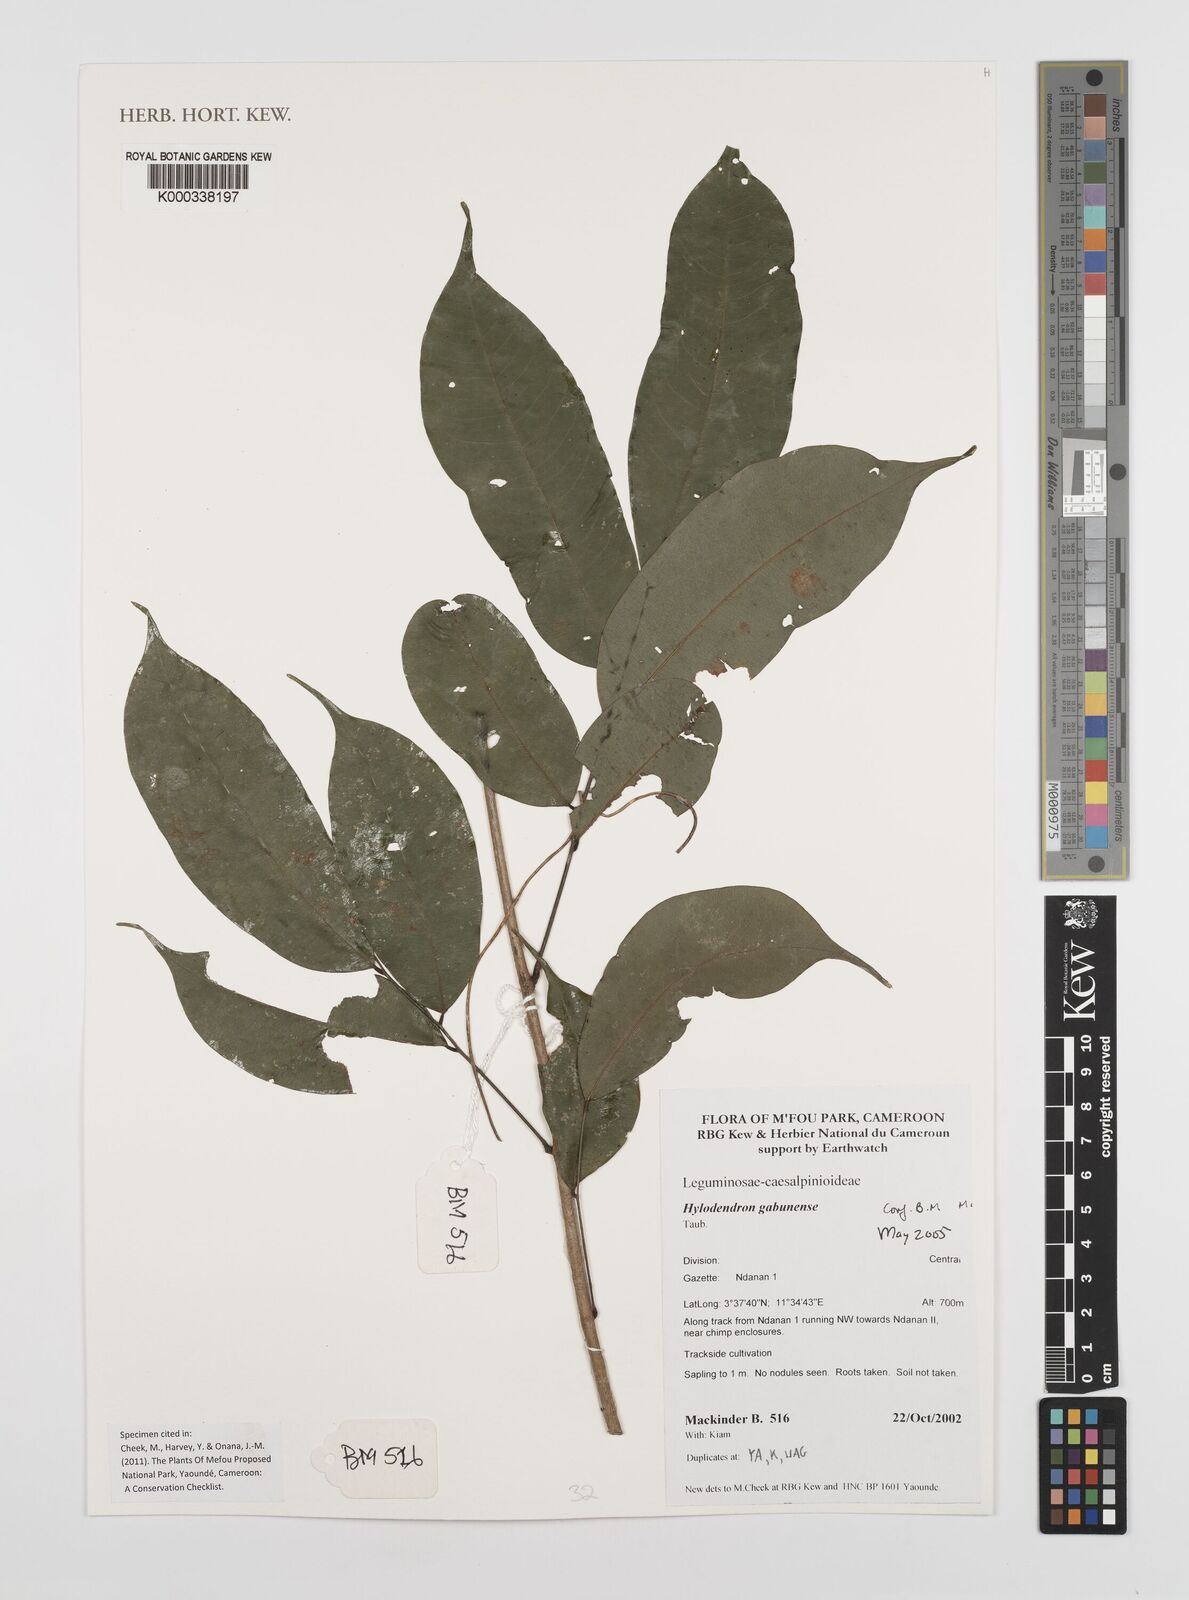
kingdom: Plantae
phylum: Tracheophyta
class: Magnoliopsida
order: Fabales
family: Fabaceae
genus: Hylodendron
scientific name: Hylodendron gabunense
